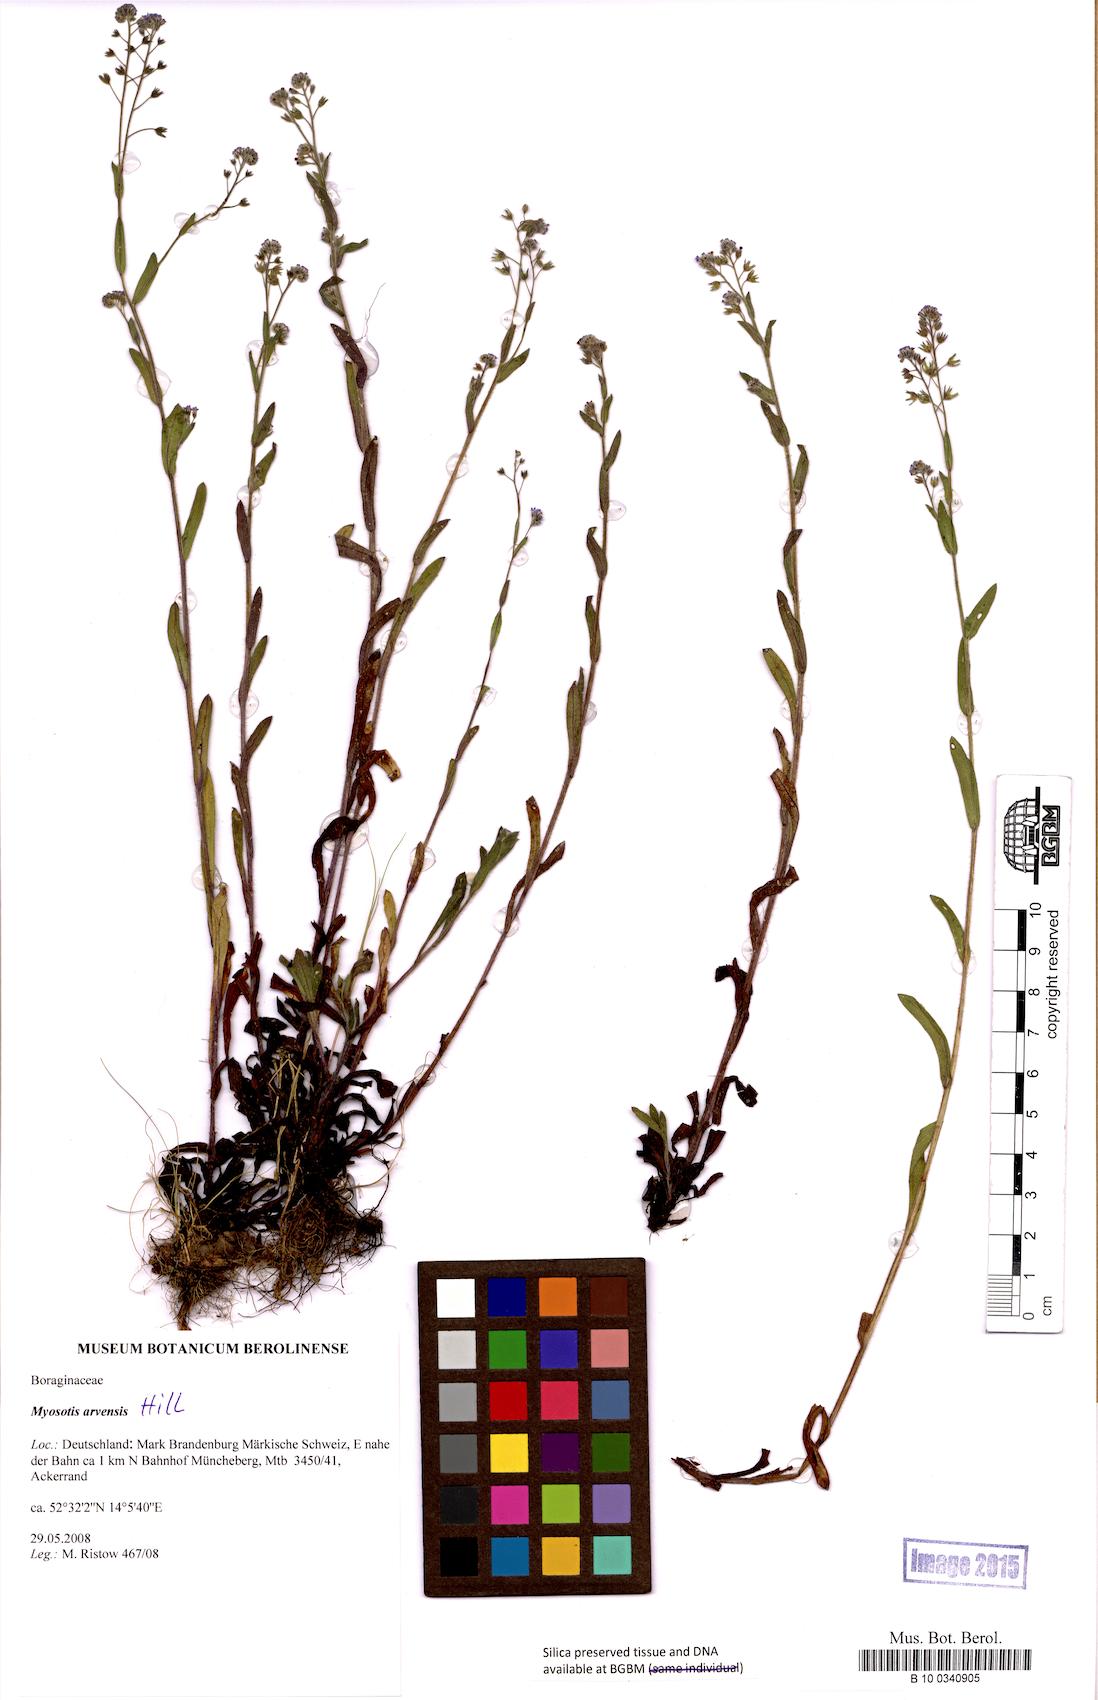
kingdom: Plantae
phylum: Tracheophyta
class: Magnoliopsida
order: Boraginales
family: Boraginaceae
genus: Myosotis
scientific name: Myosotis arvensis
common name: Field forget-me-not
